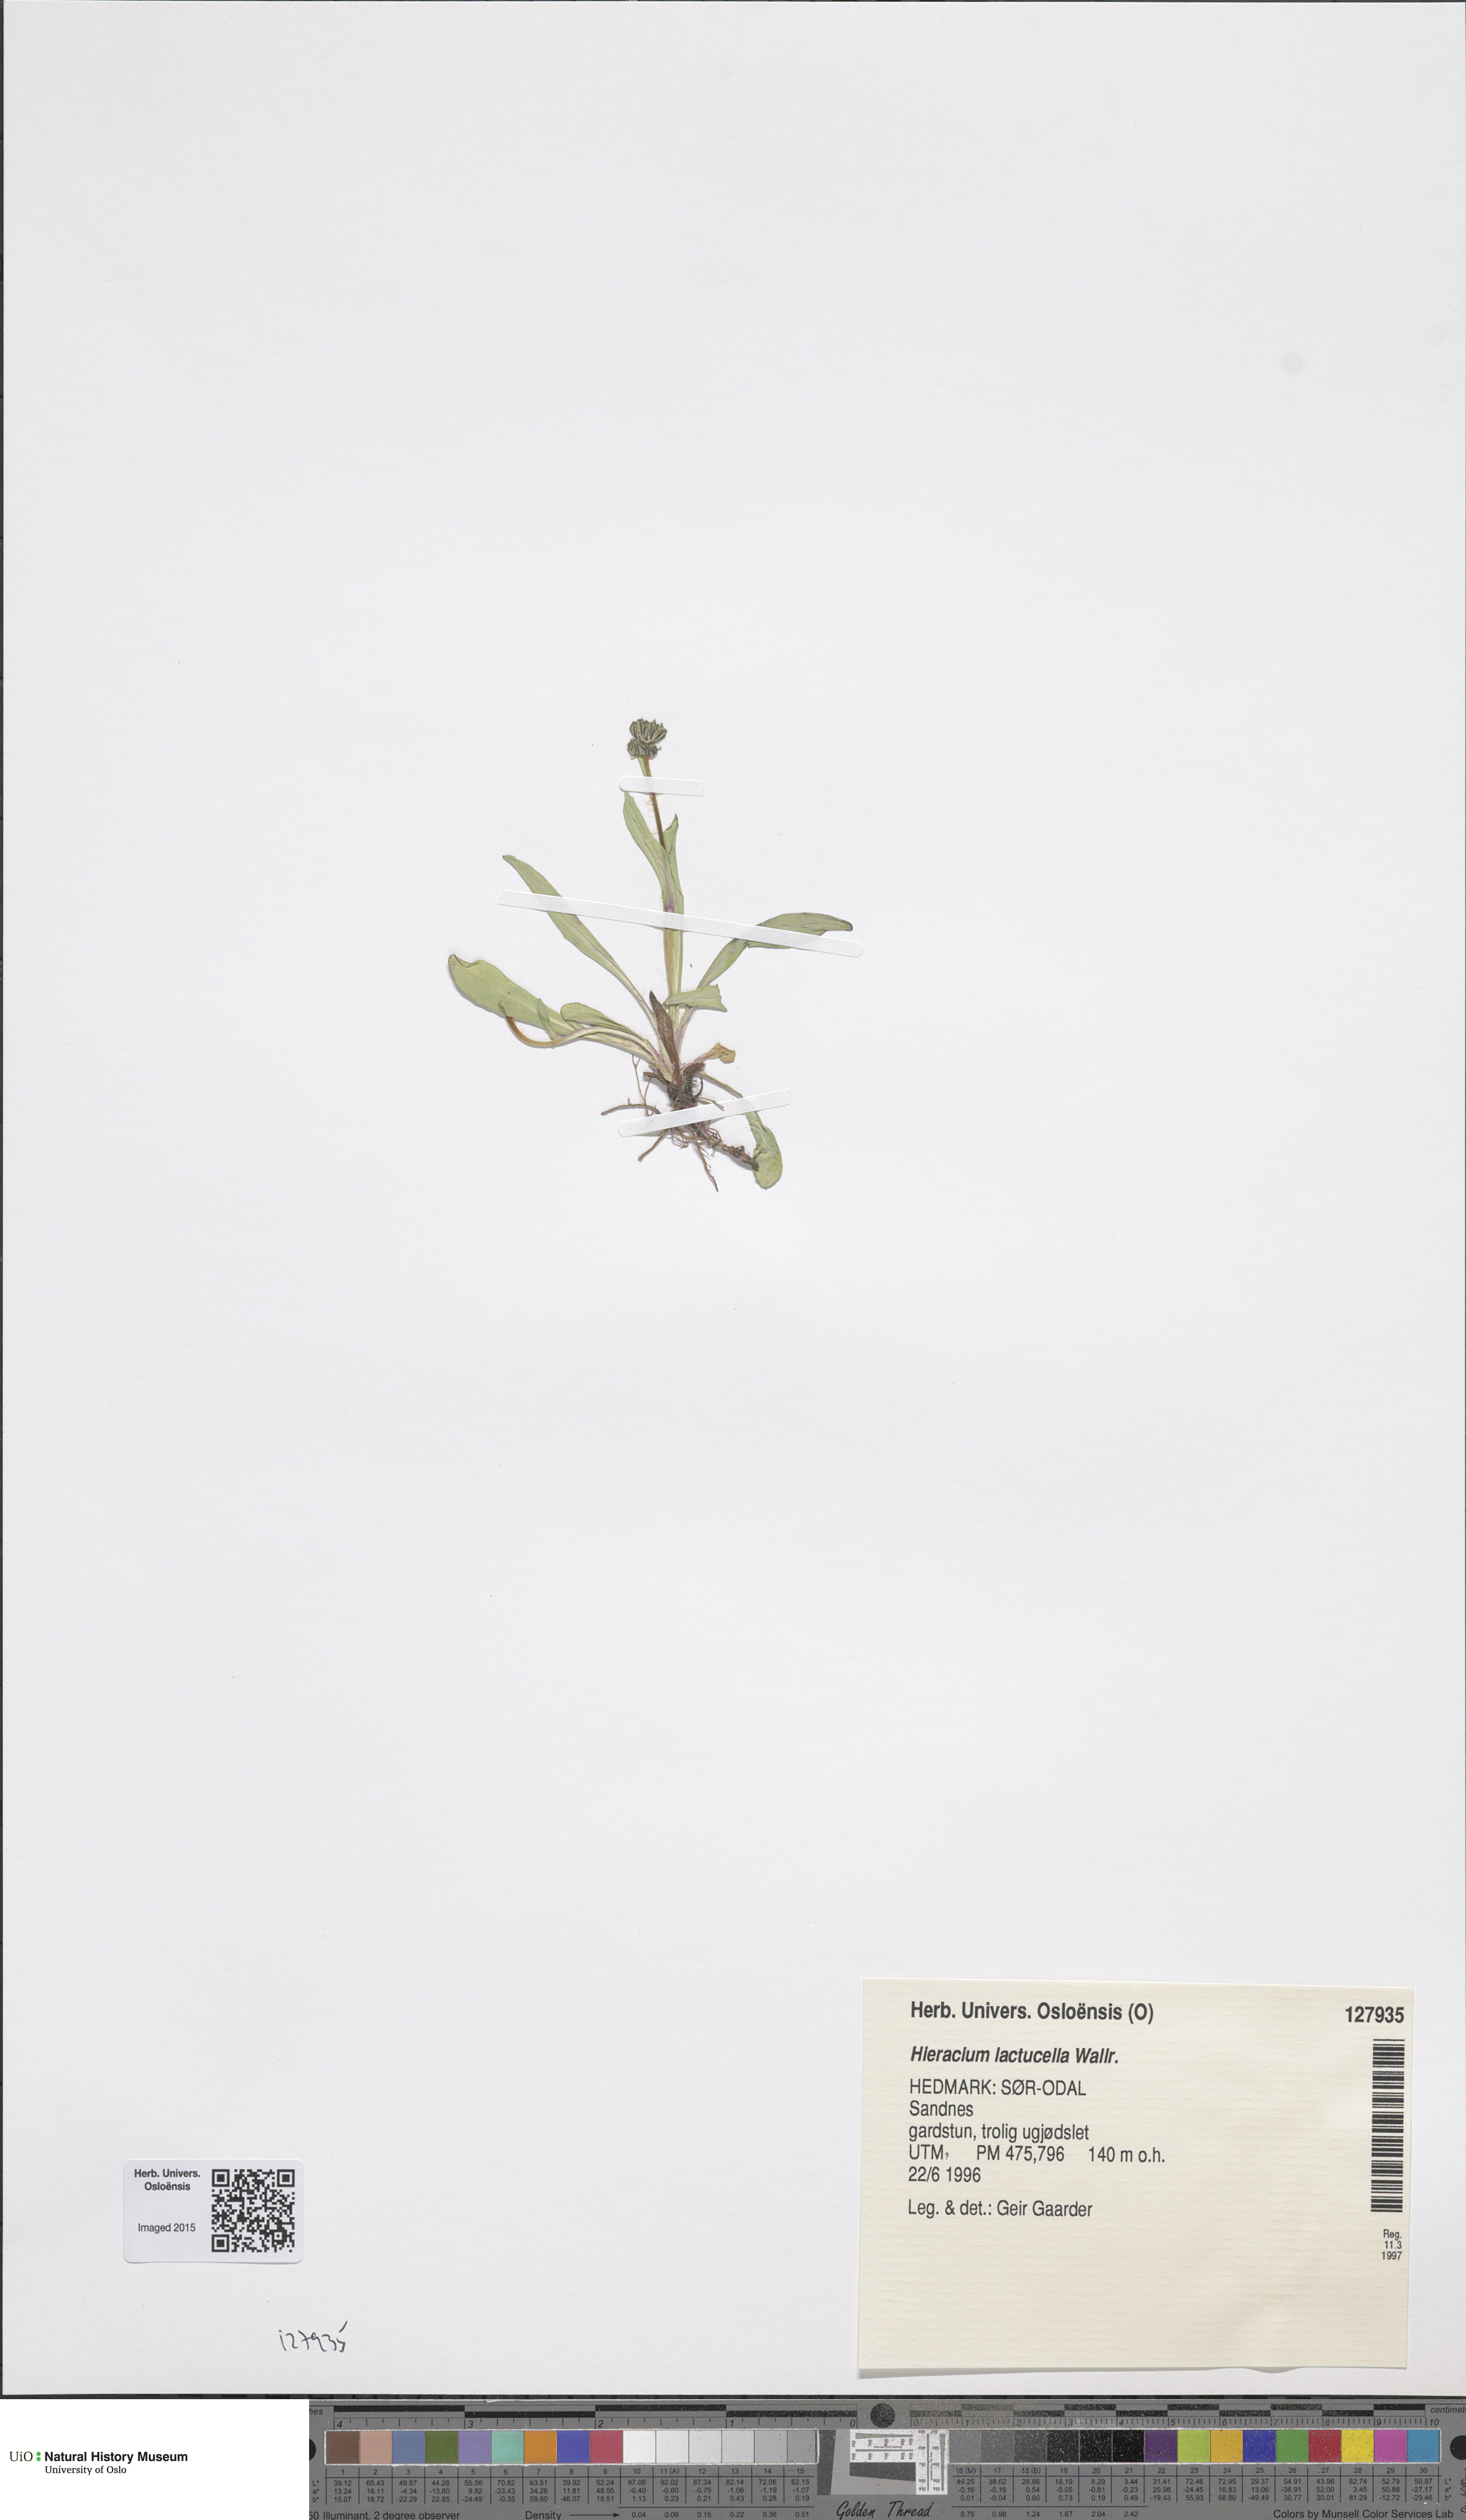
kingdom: Plantae
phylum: Tracheophyta
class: Magnoliopsida
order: Asterales
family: Asteraceae
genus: Pilosella
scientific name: Pilosella lactucella
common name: Glaucous fox-and-cubs
